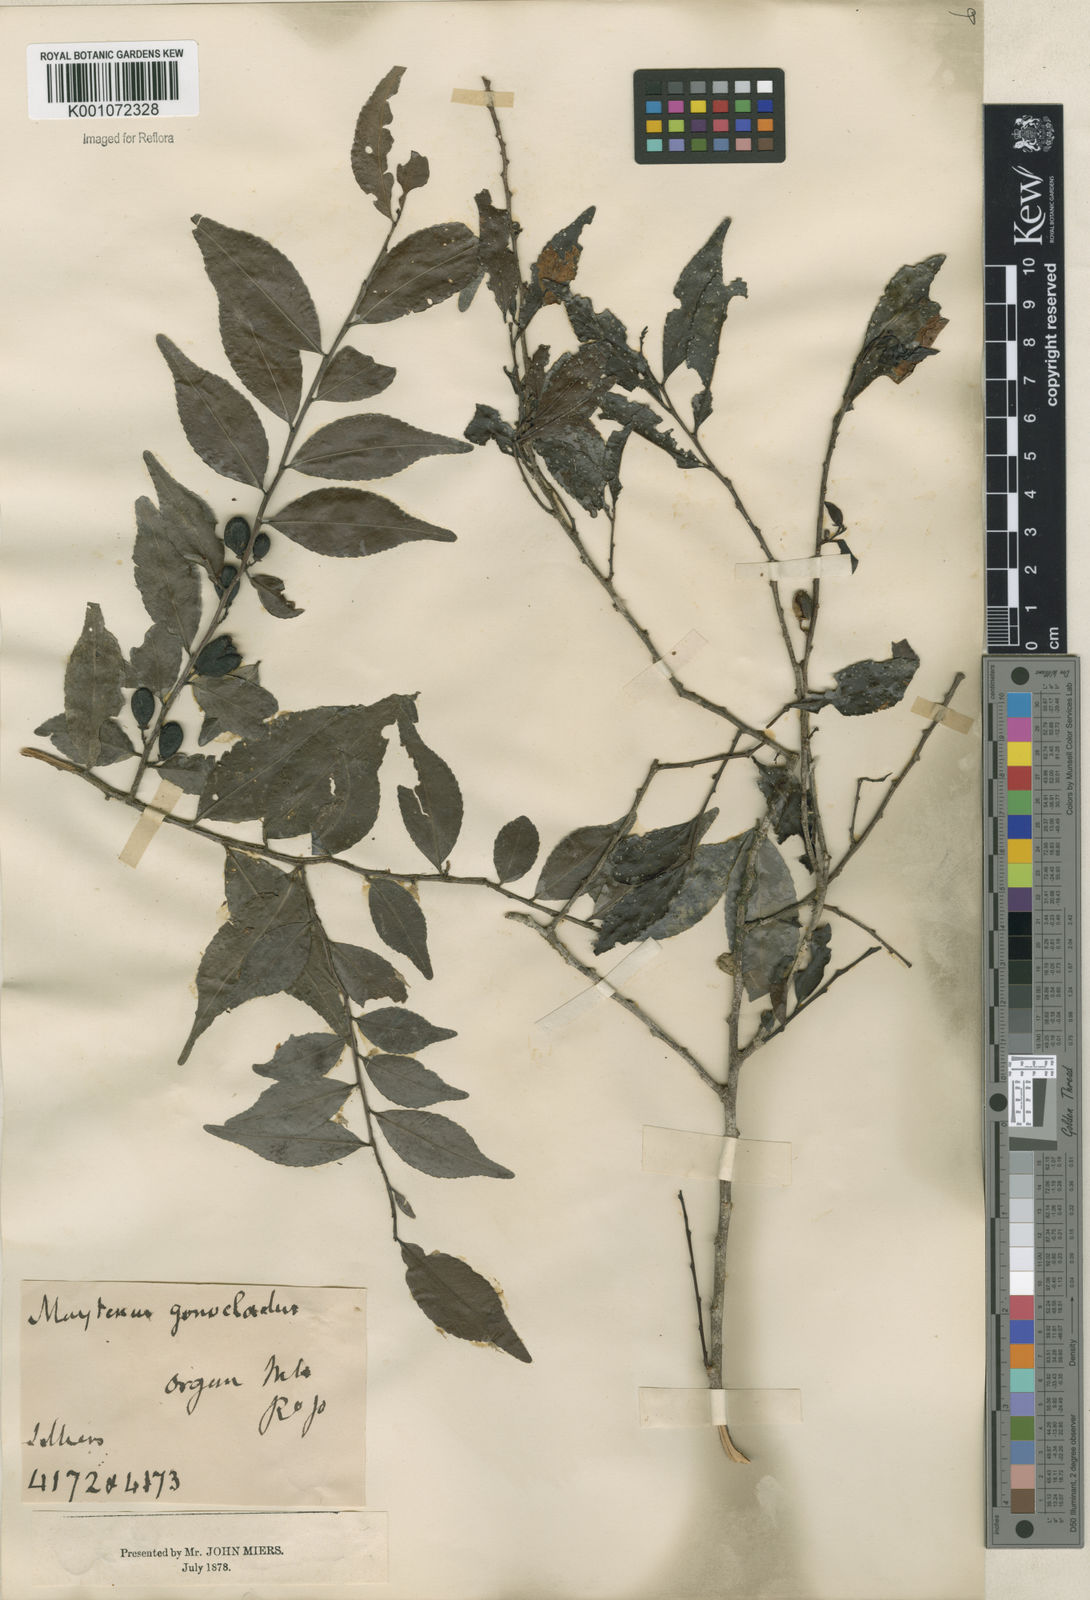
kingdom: Plantae
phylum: Tracheophyta
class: Magnoliopsida
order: Celastrales
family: Celastraceae
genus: Maytenus
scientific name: Maytenus
